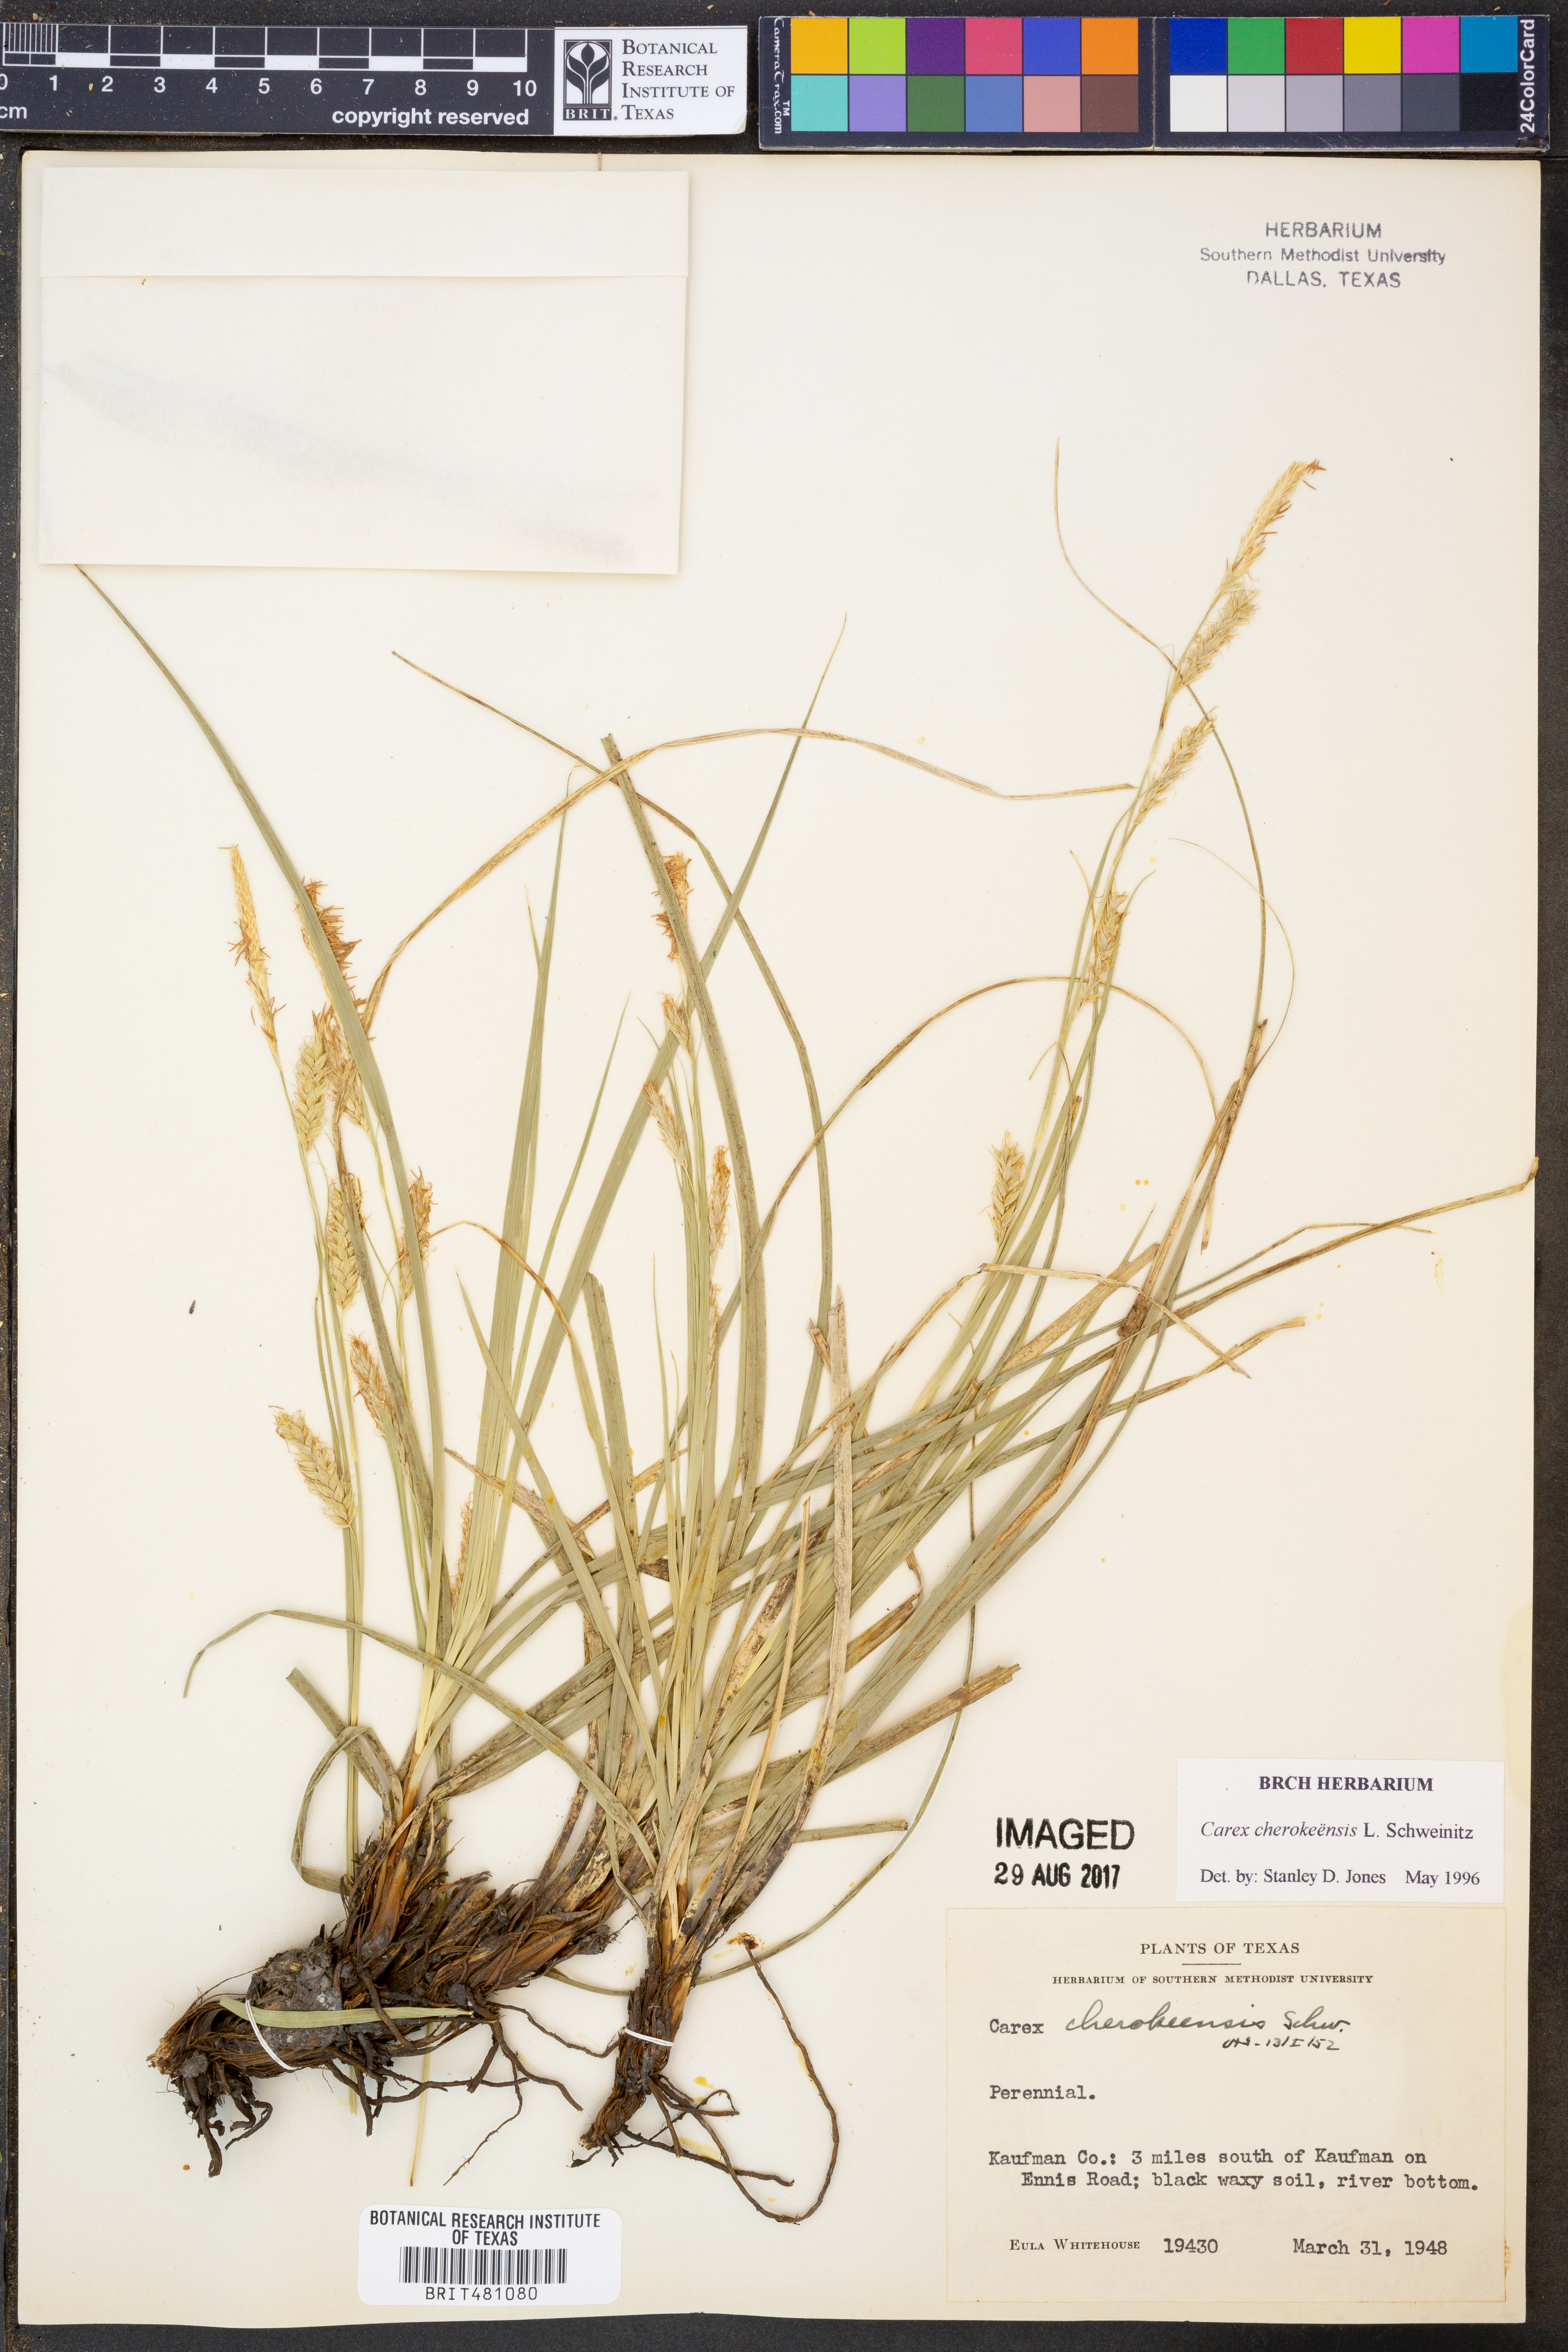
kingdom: Plantae
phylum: Tracheophyta
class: Liliopsida
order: Poales
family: Cyperaceae
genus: Carex
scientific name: Carex cherokeensis
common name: Cherokee sedge
